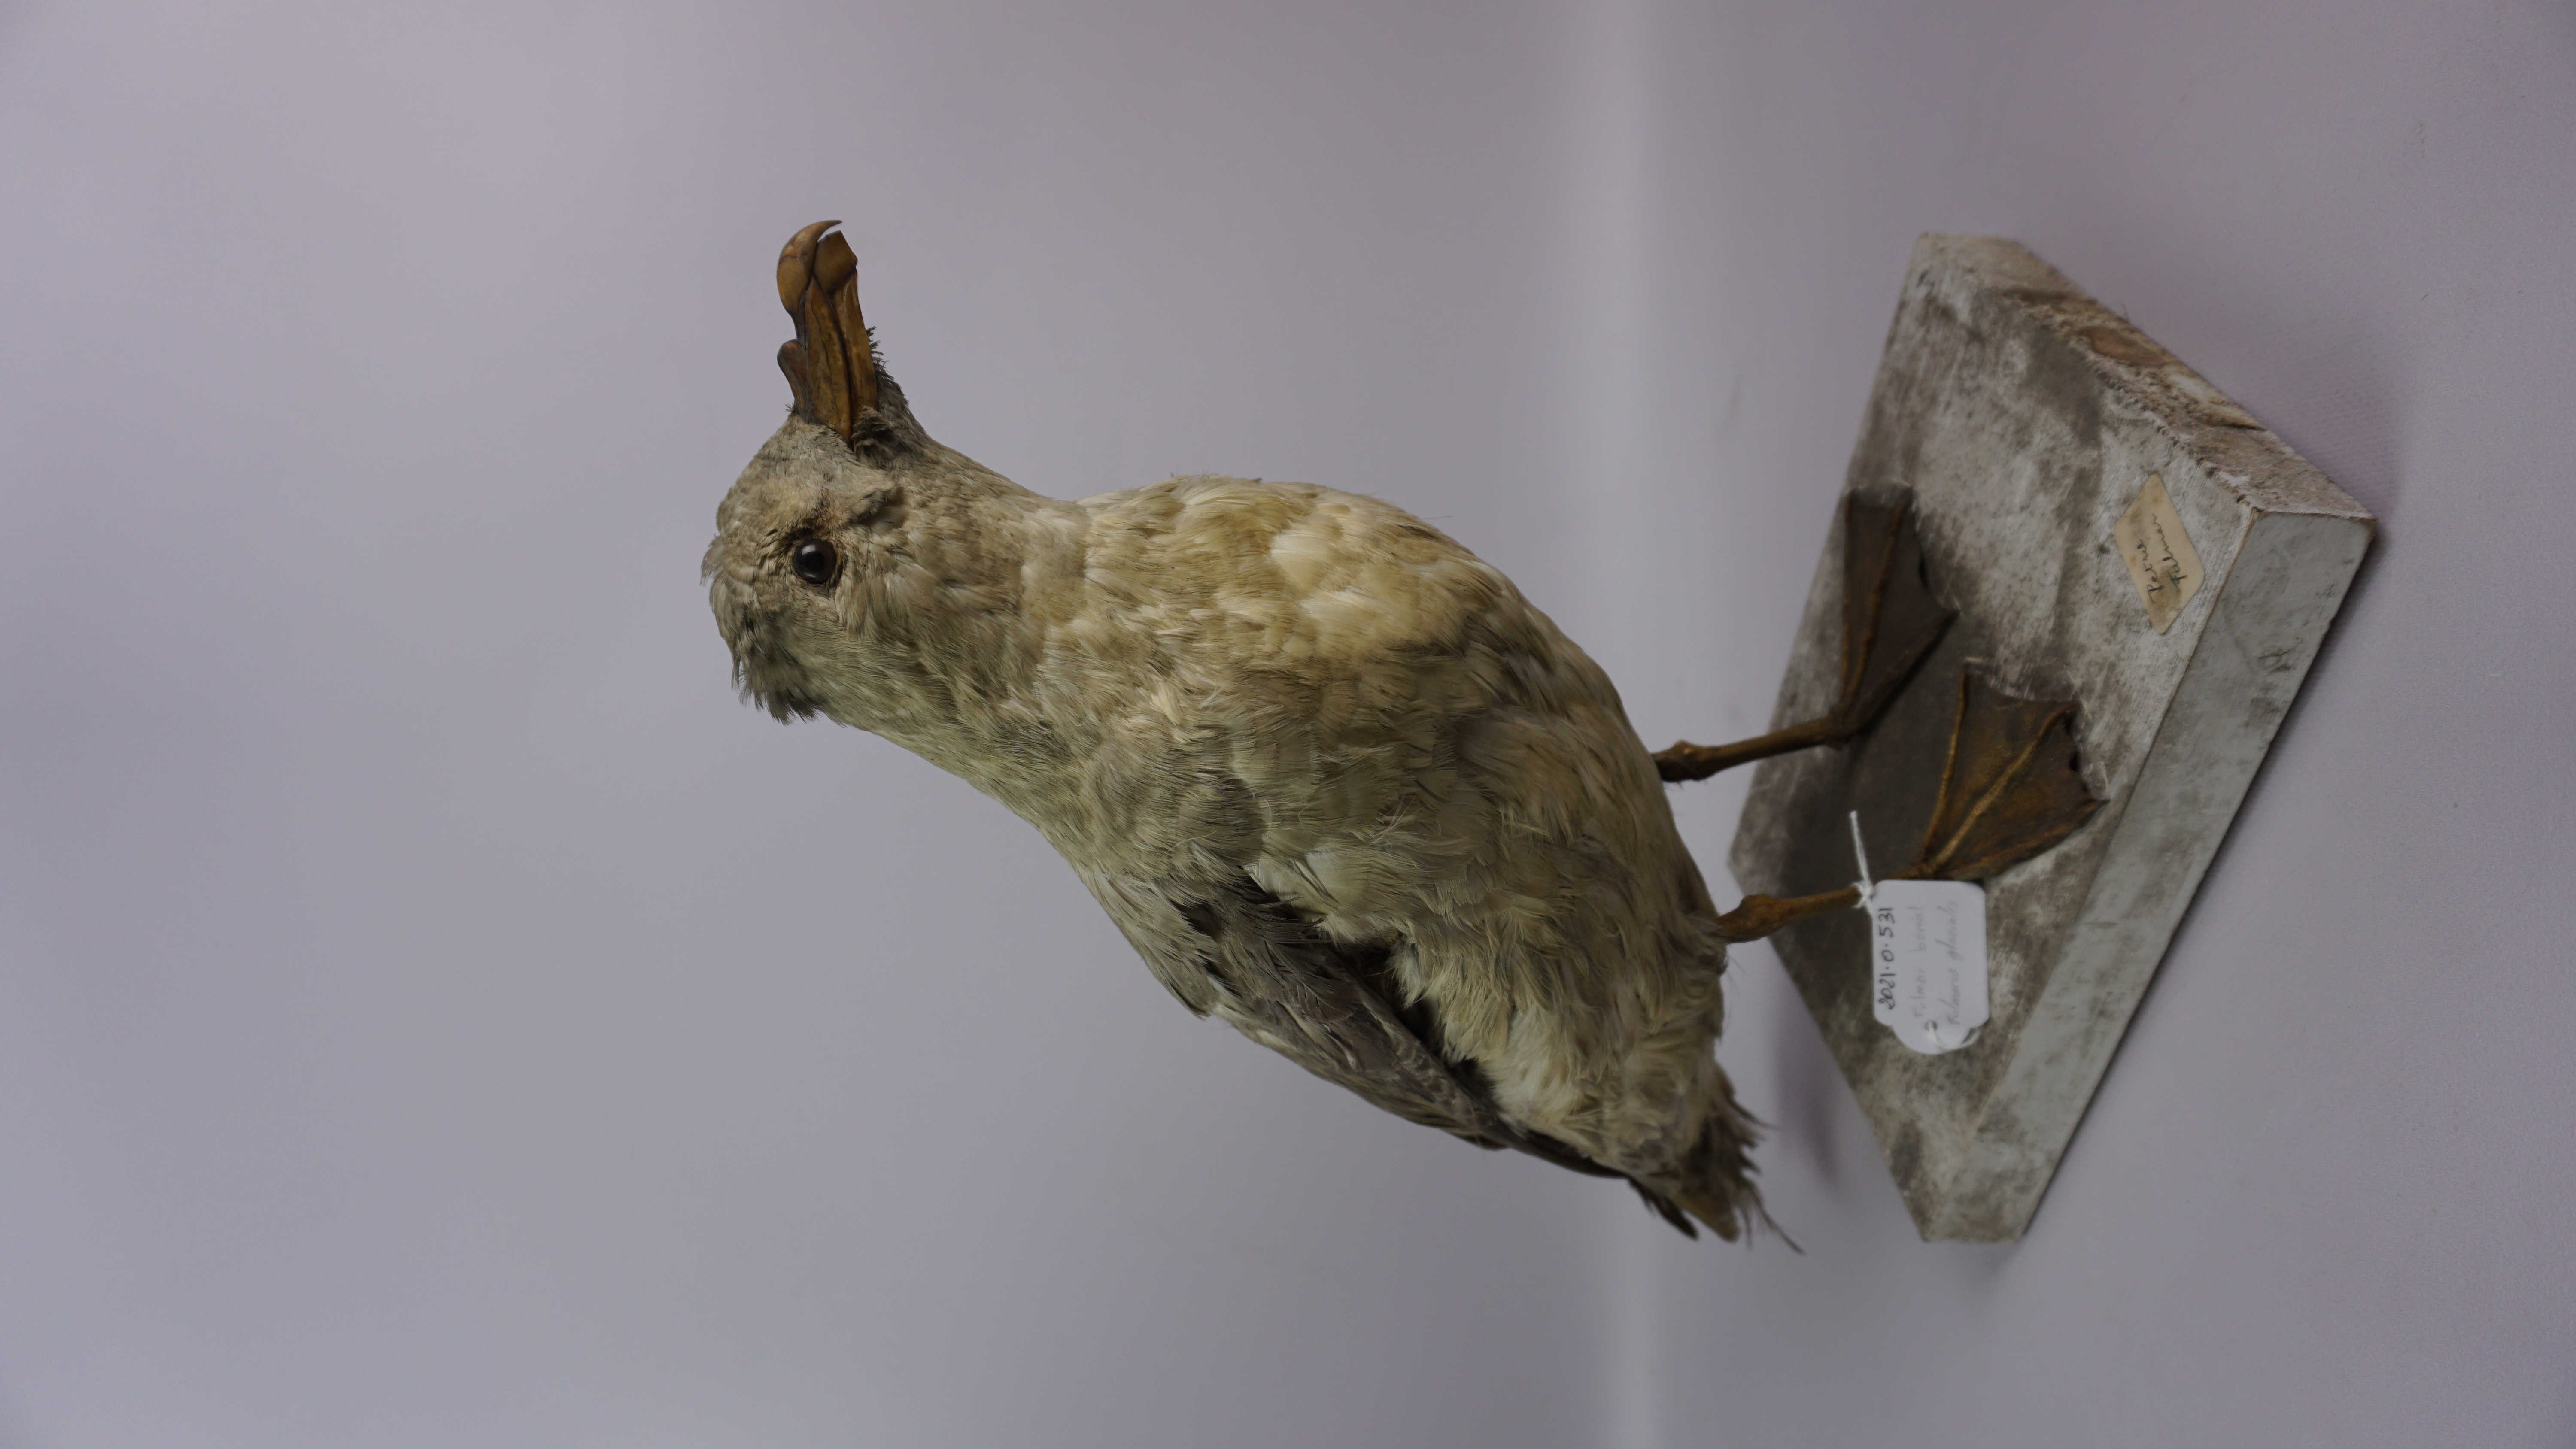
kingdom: Animalia
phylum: Chordata
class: Aves
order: Procellariiformes
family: Procellariidae
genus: Fulmarus
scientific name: Fulmarus glacialis
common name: Northern fulmar
